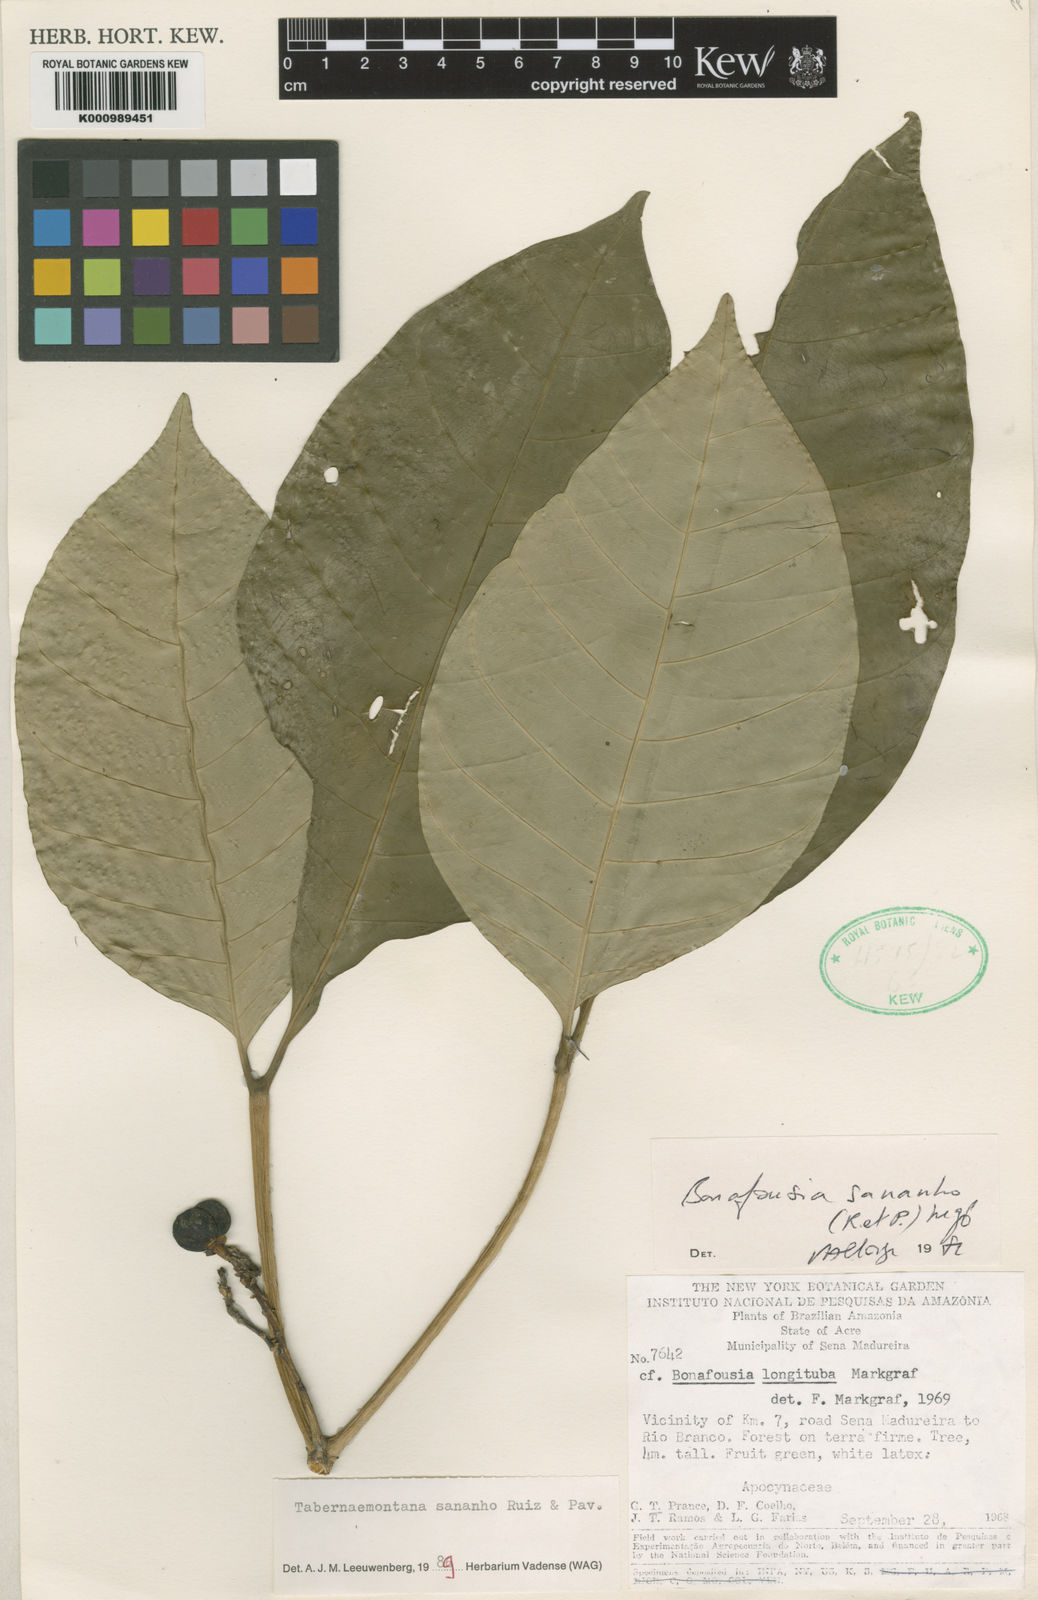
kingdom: Plantae
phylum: Tracheophyta
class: Magnoliopsida
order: Gentianales
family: Apocynaceae
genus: Tabernaemontana
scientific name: Tabernaemontana sananho
